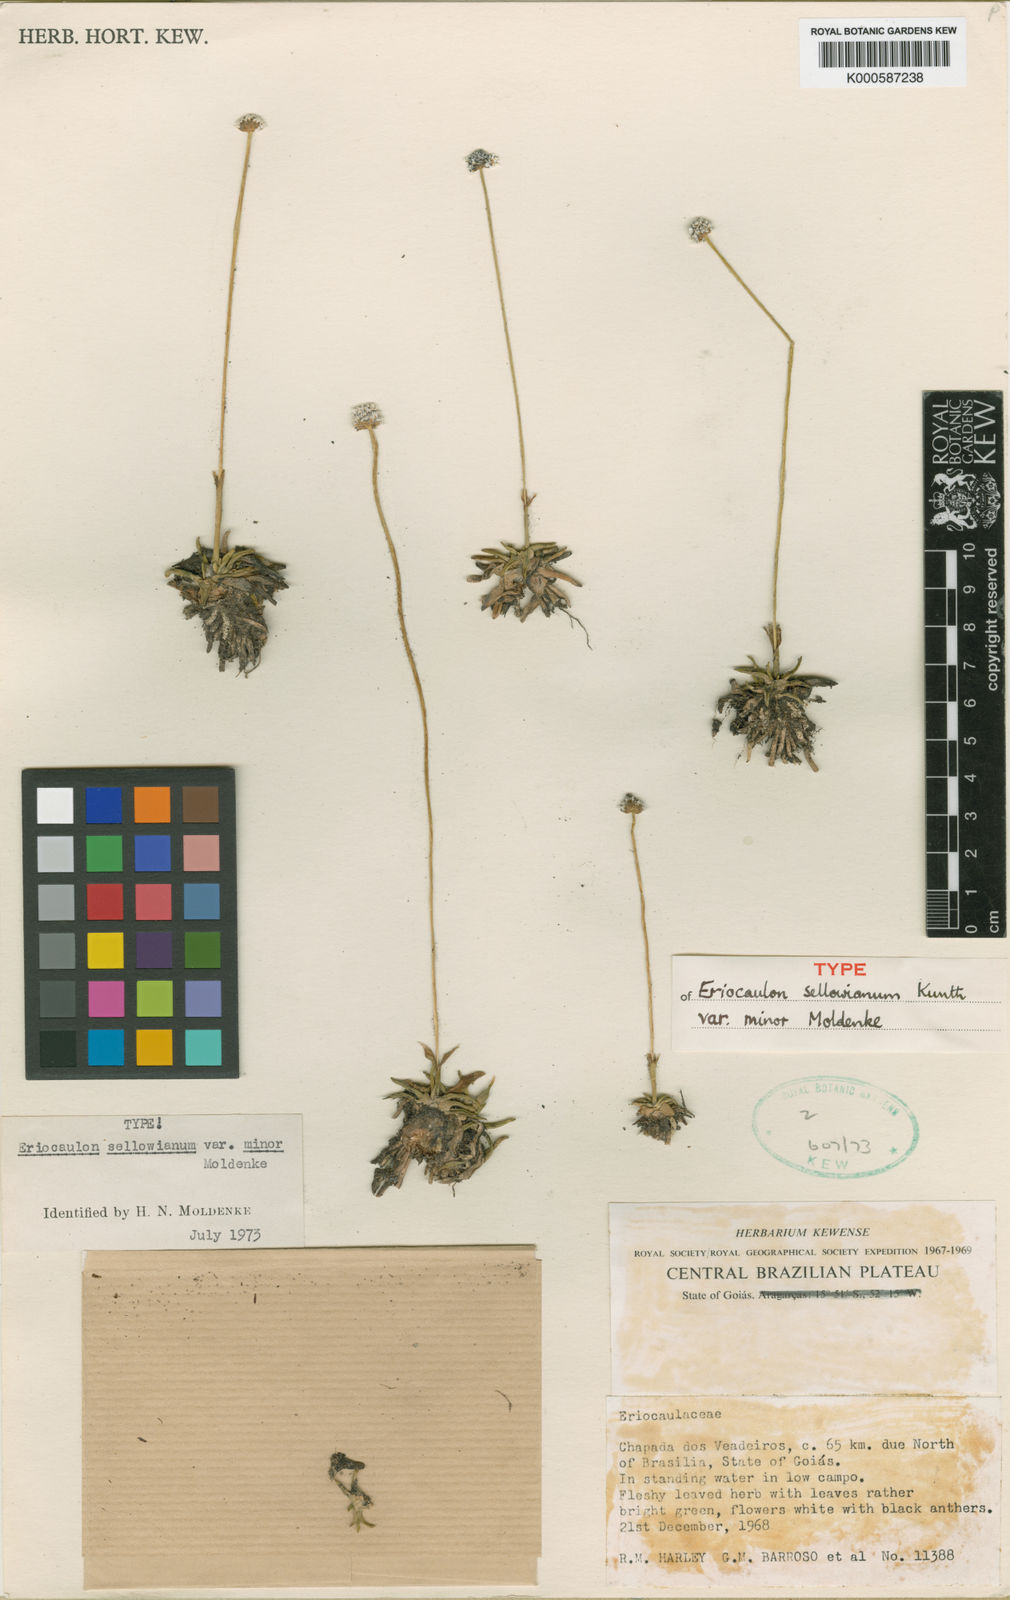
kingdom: Plantae
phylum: Tracheophyta
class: Liliopsida
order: Poales
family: Eriocaulaceae
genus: Eriocaulon
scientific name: Eriocaulon sellowianum
